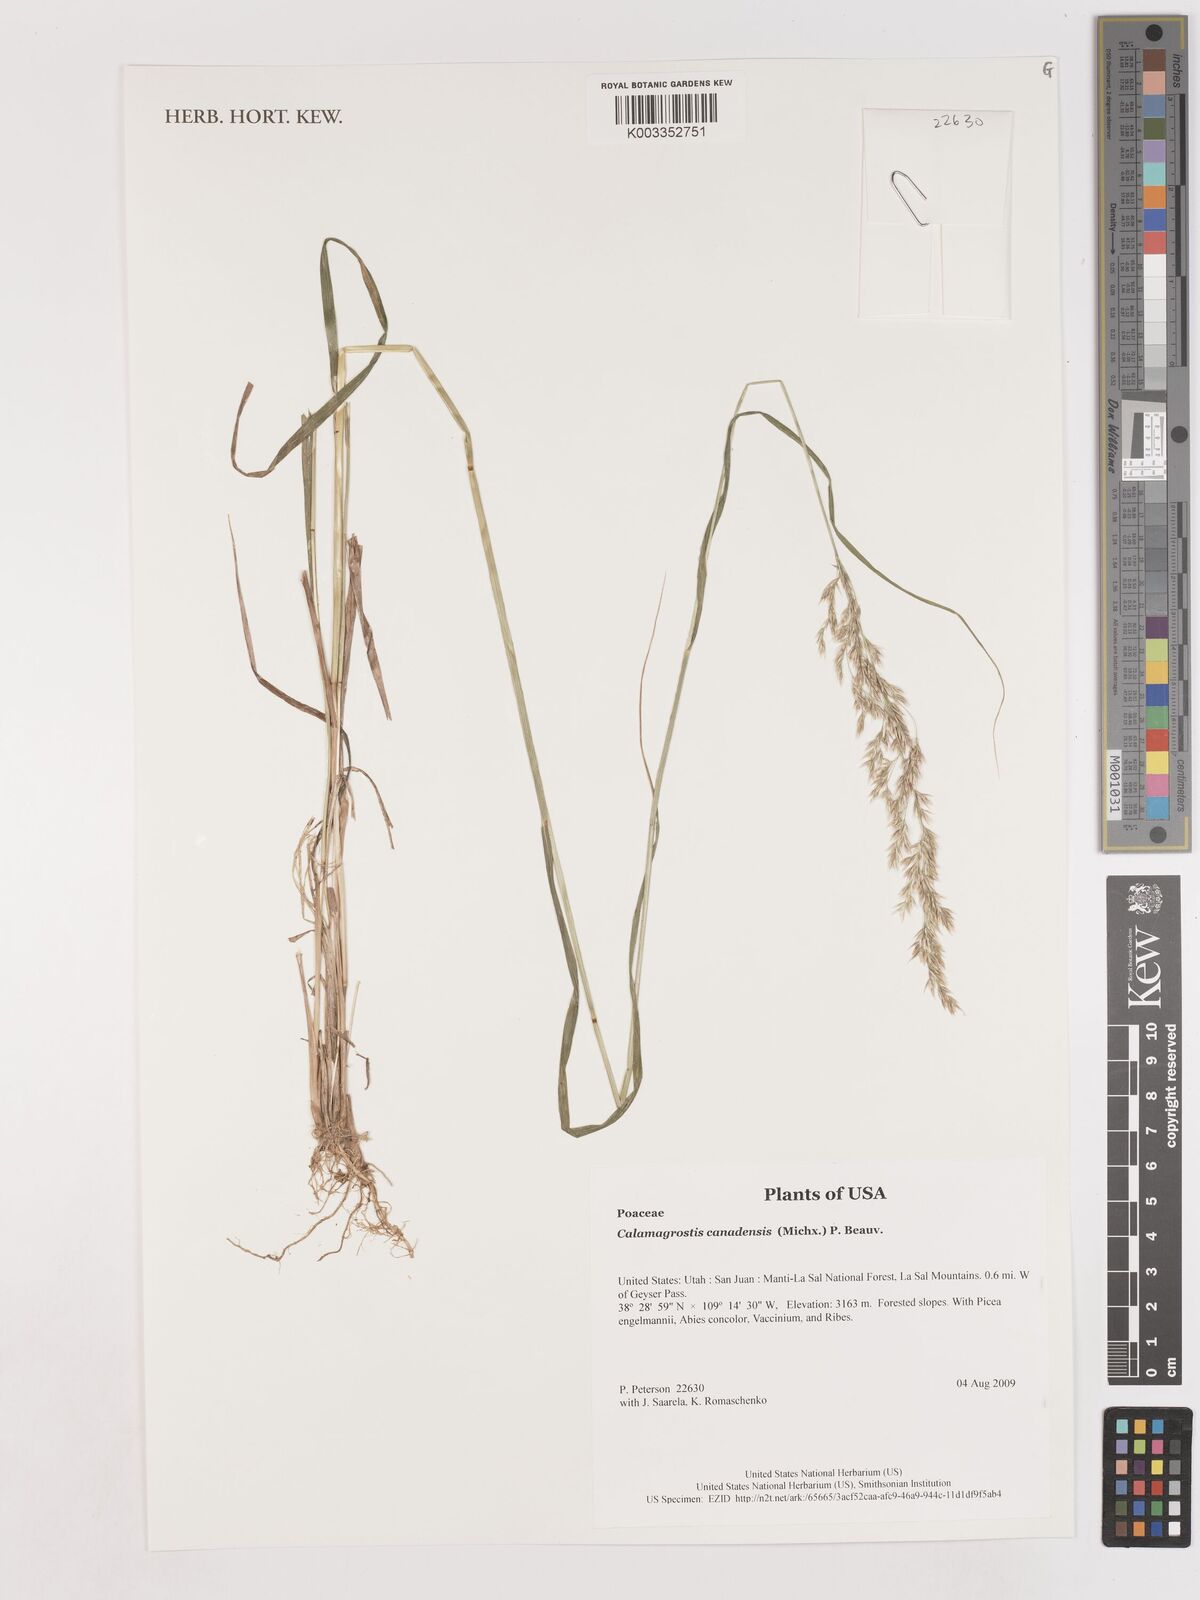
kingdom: Plantae
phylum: Tracheophyta
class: Liliopsida
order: Poales
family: Poaceae
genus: Calamagrostis
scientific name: Calamagrostis canadensis
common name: Canada bluejoint
